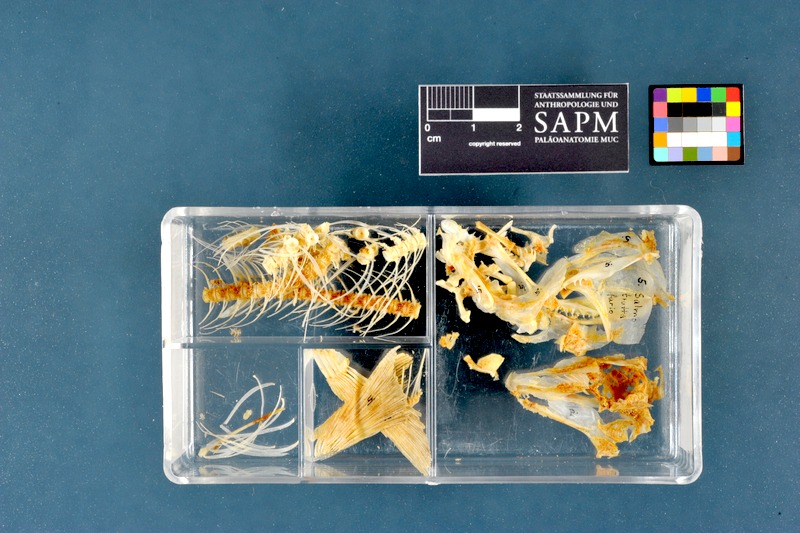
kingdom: Animalia
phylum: Chordata
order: Salmoniformes
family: Salmonidae
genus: Salmo
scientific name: Salmo trutta
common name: Brown trout
